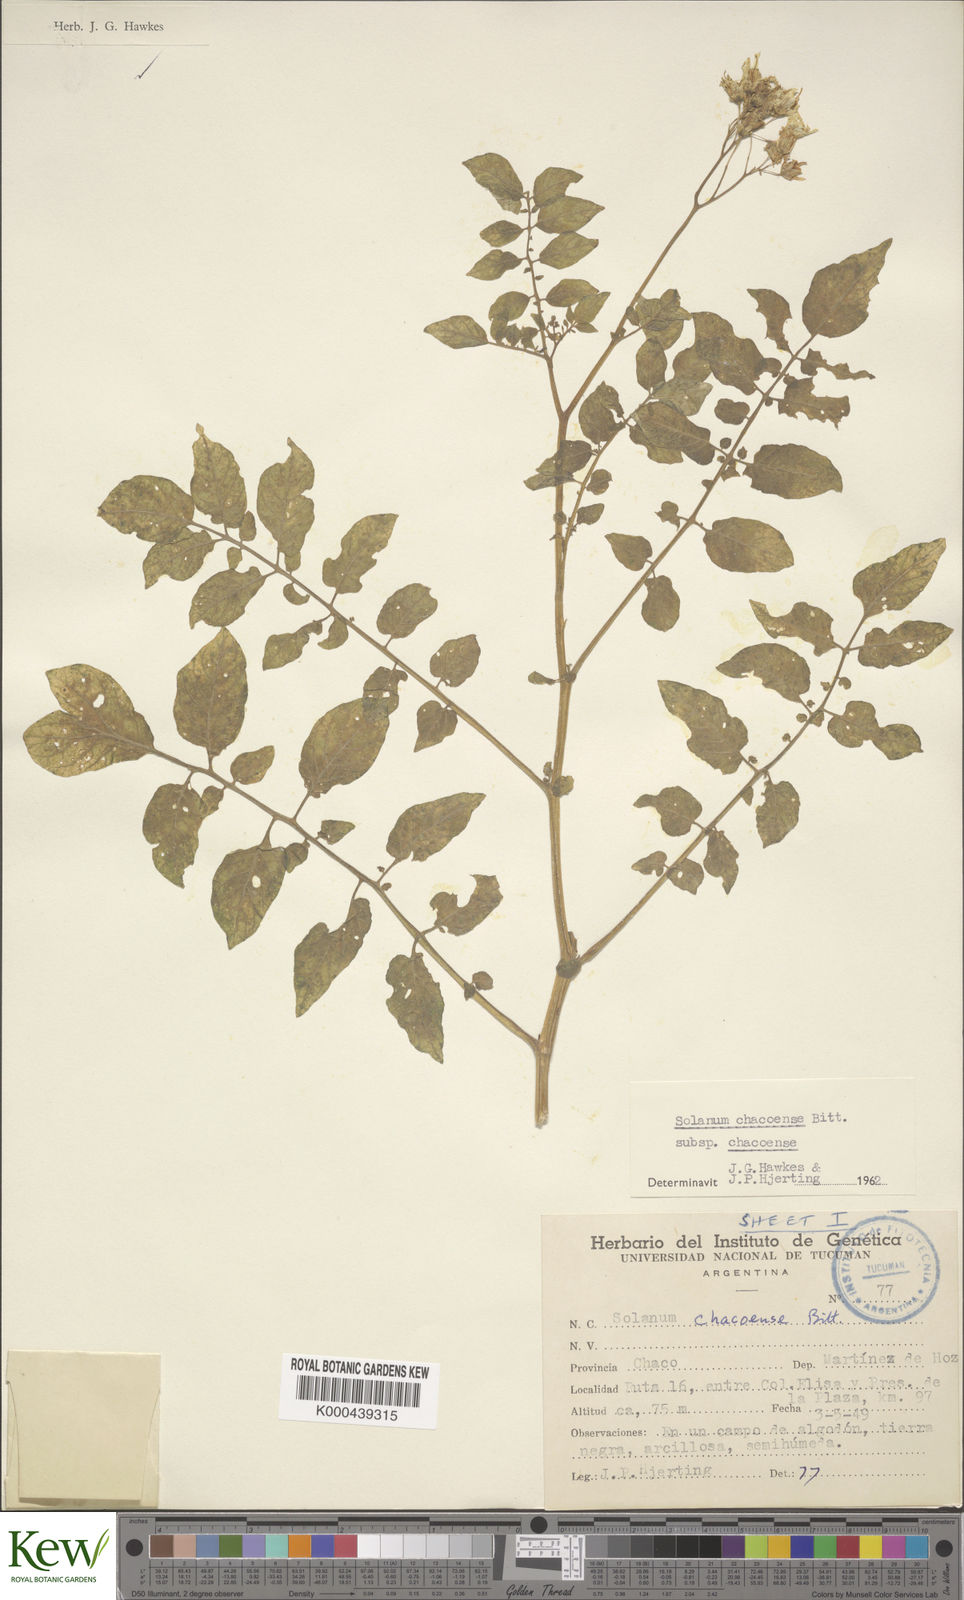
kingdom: Plantae
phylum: Tracheophyta
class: Magnoliopsida
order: Solanales
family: Solanaceae
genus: Solanum
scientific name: Solanum chacoense
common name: Chaco potato
